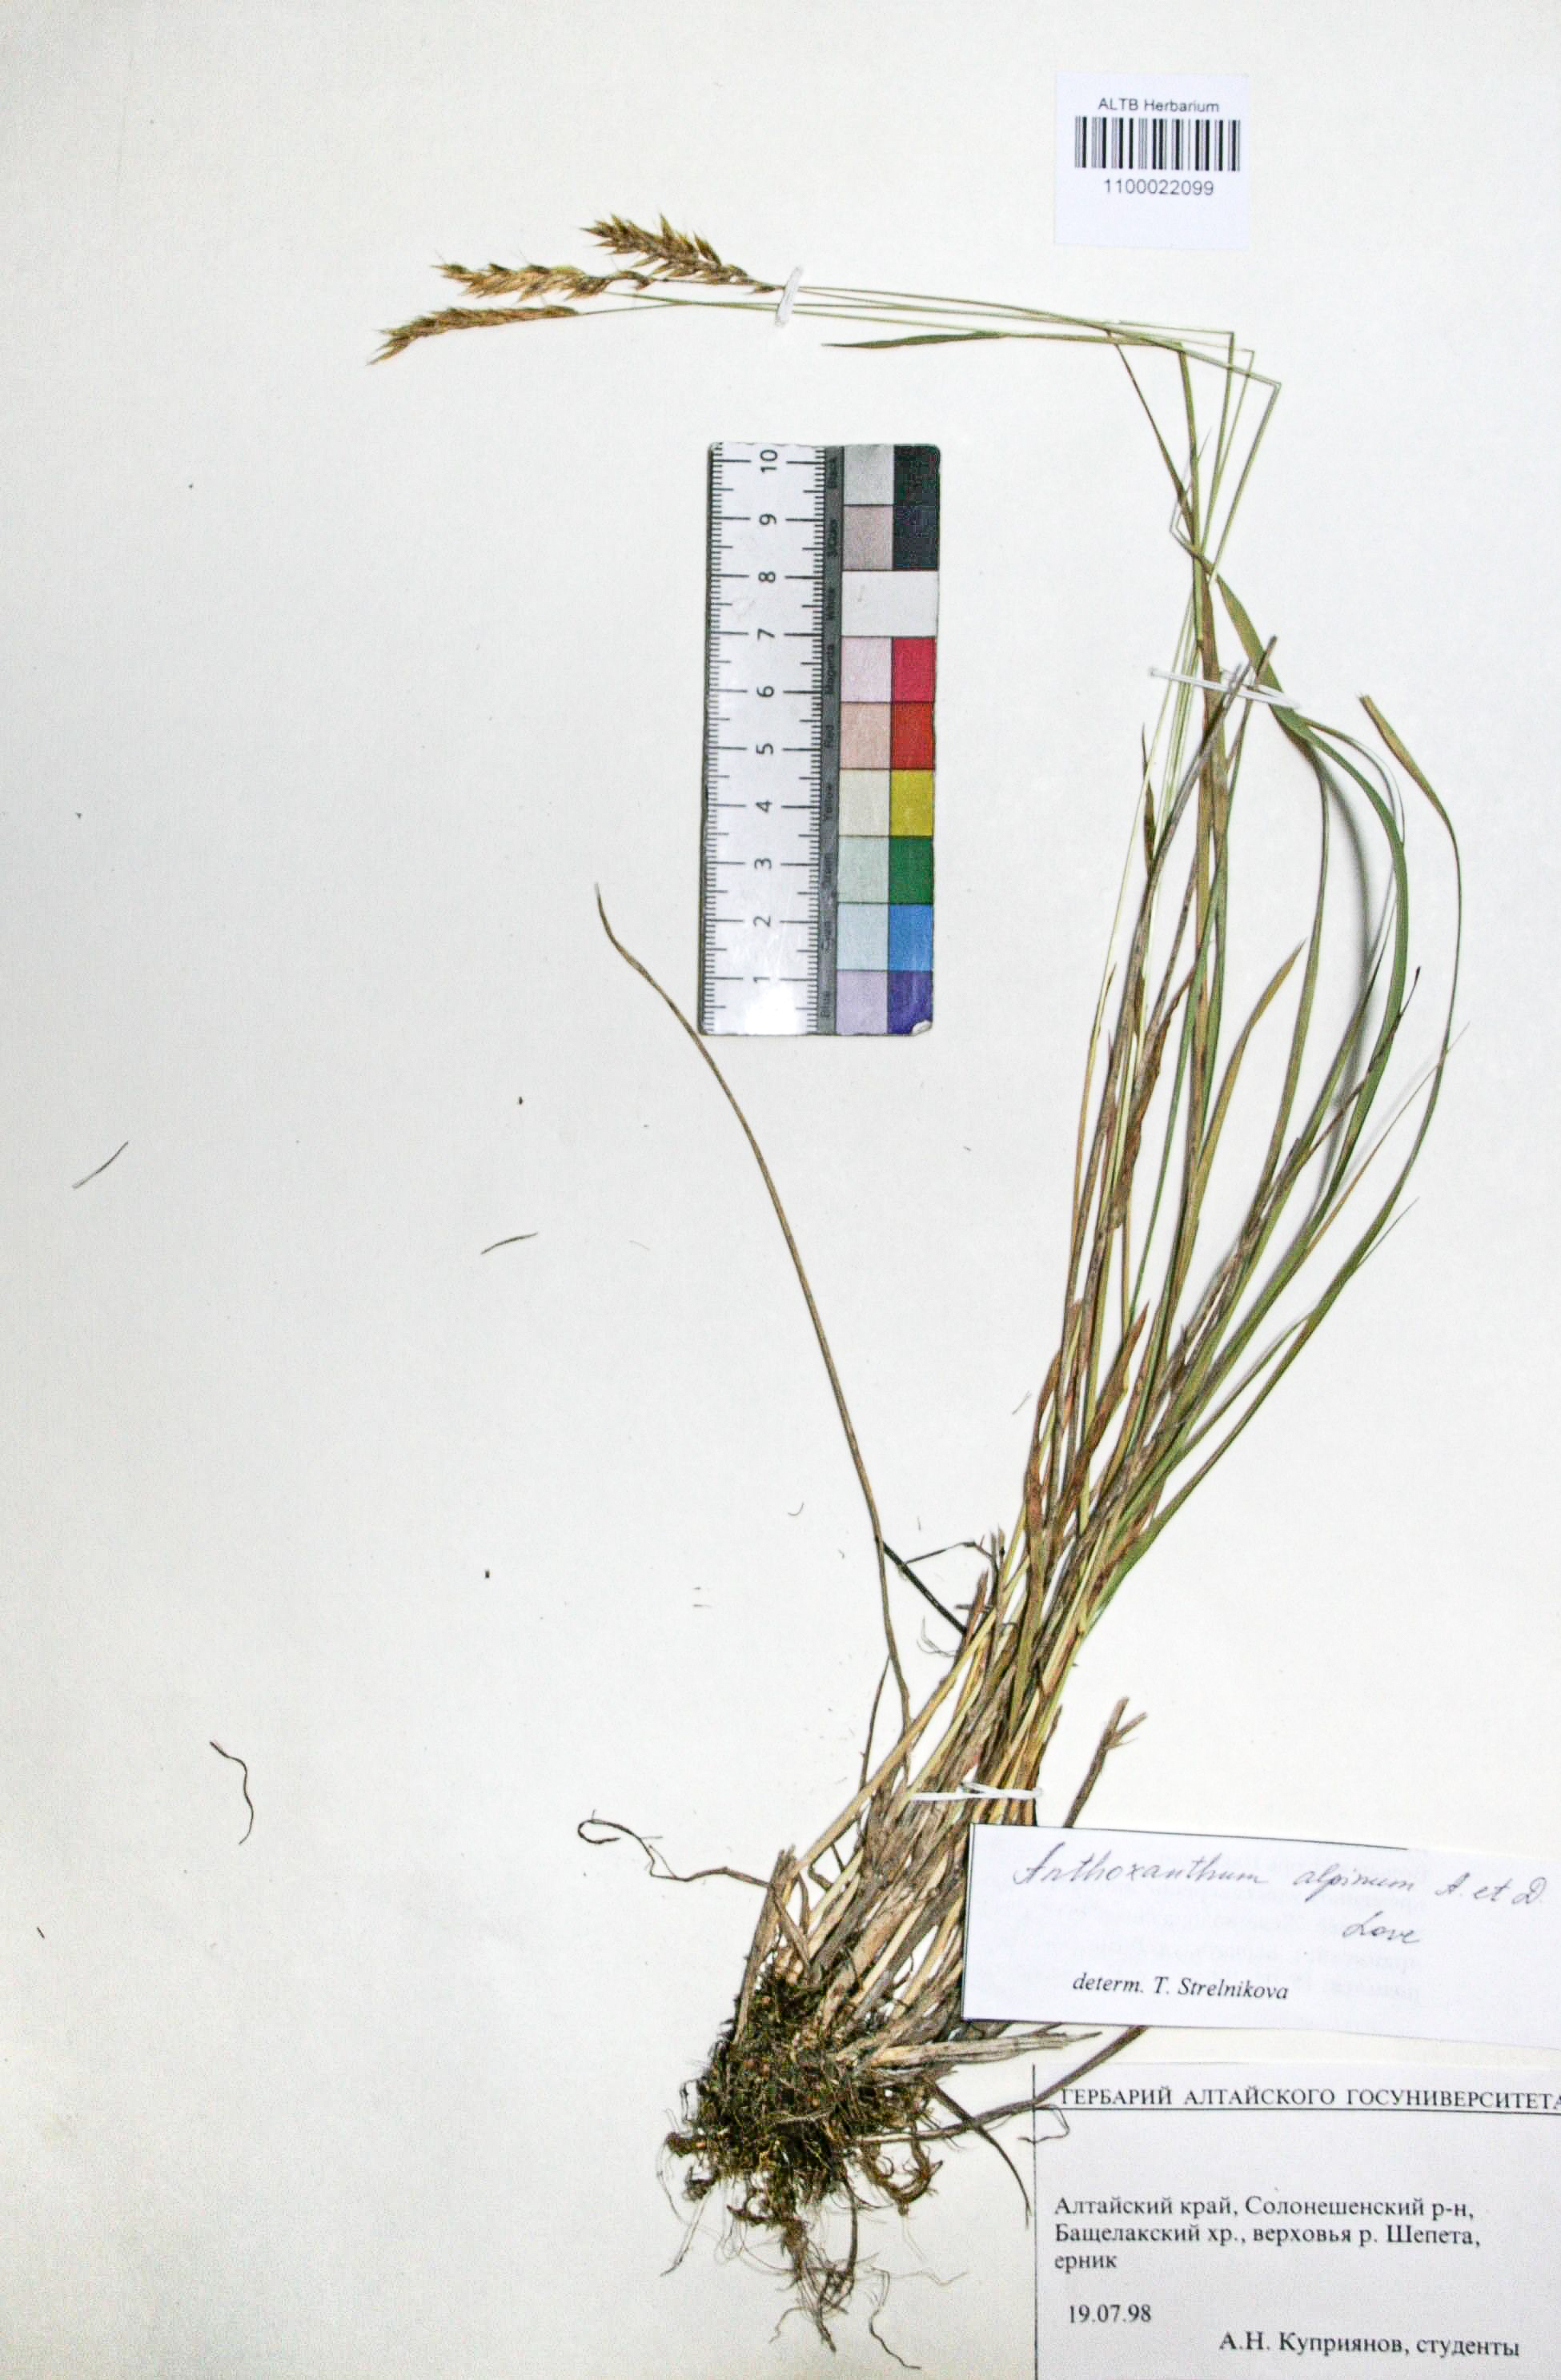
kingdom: Plantae
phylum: Tracheophyta
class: Liliopsida
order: Poales
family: Poaceae
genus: Anthoxanthum
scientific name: Anthoxanthum nipponicum
